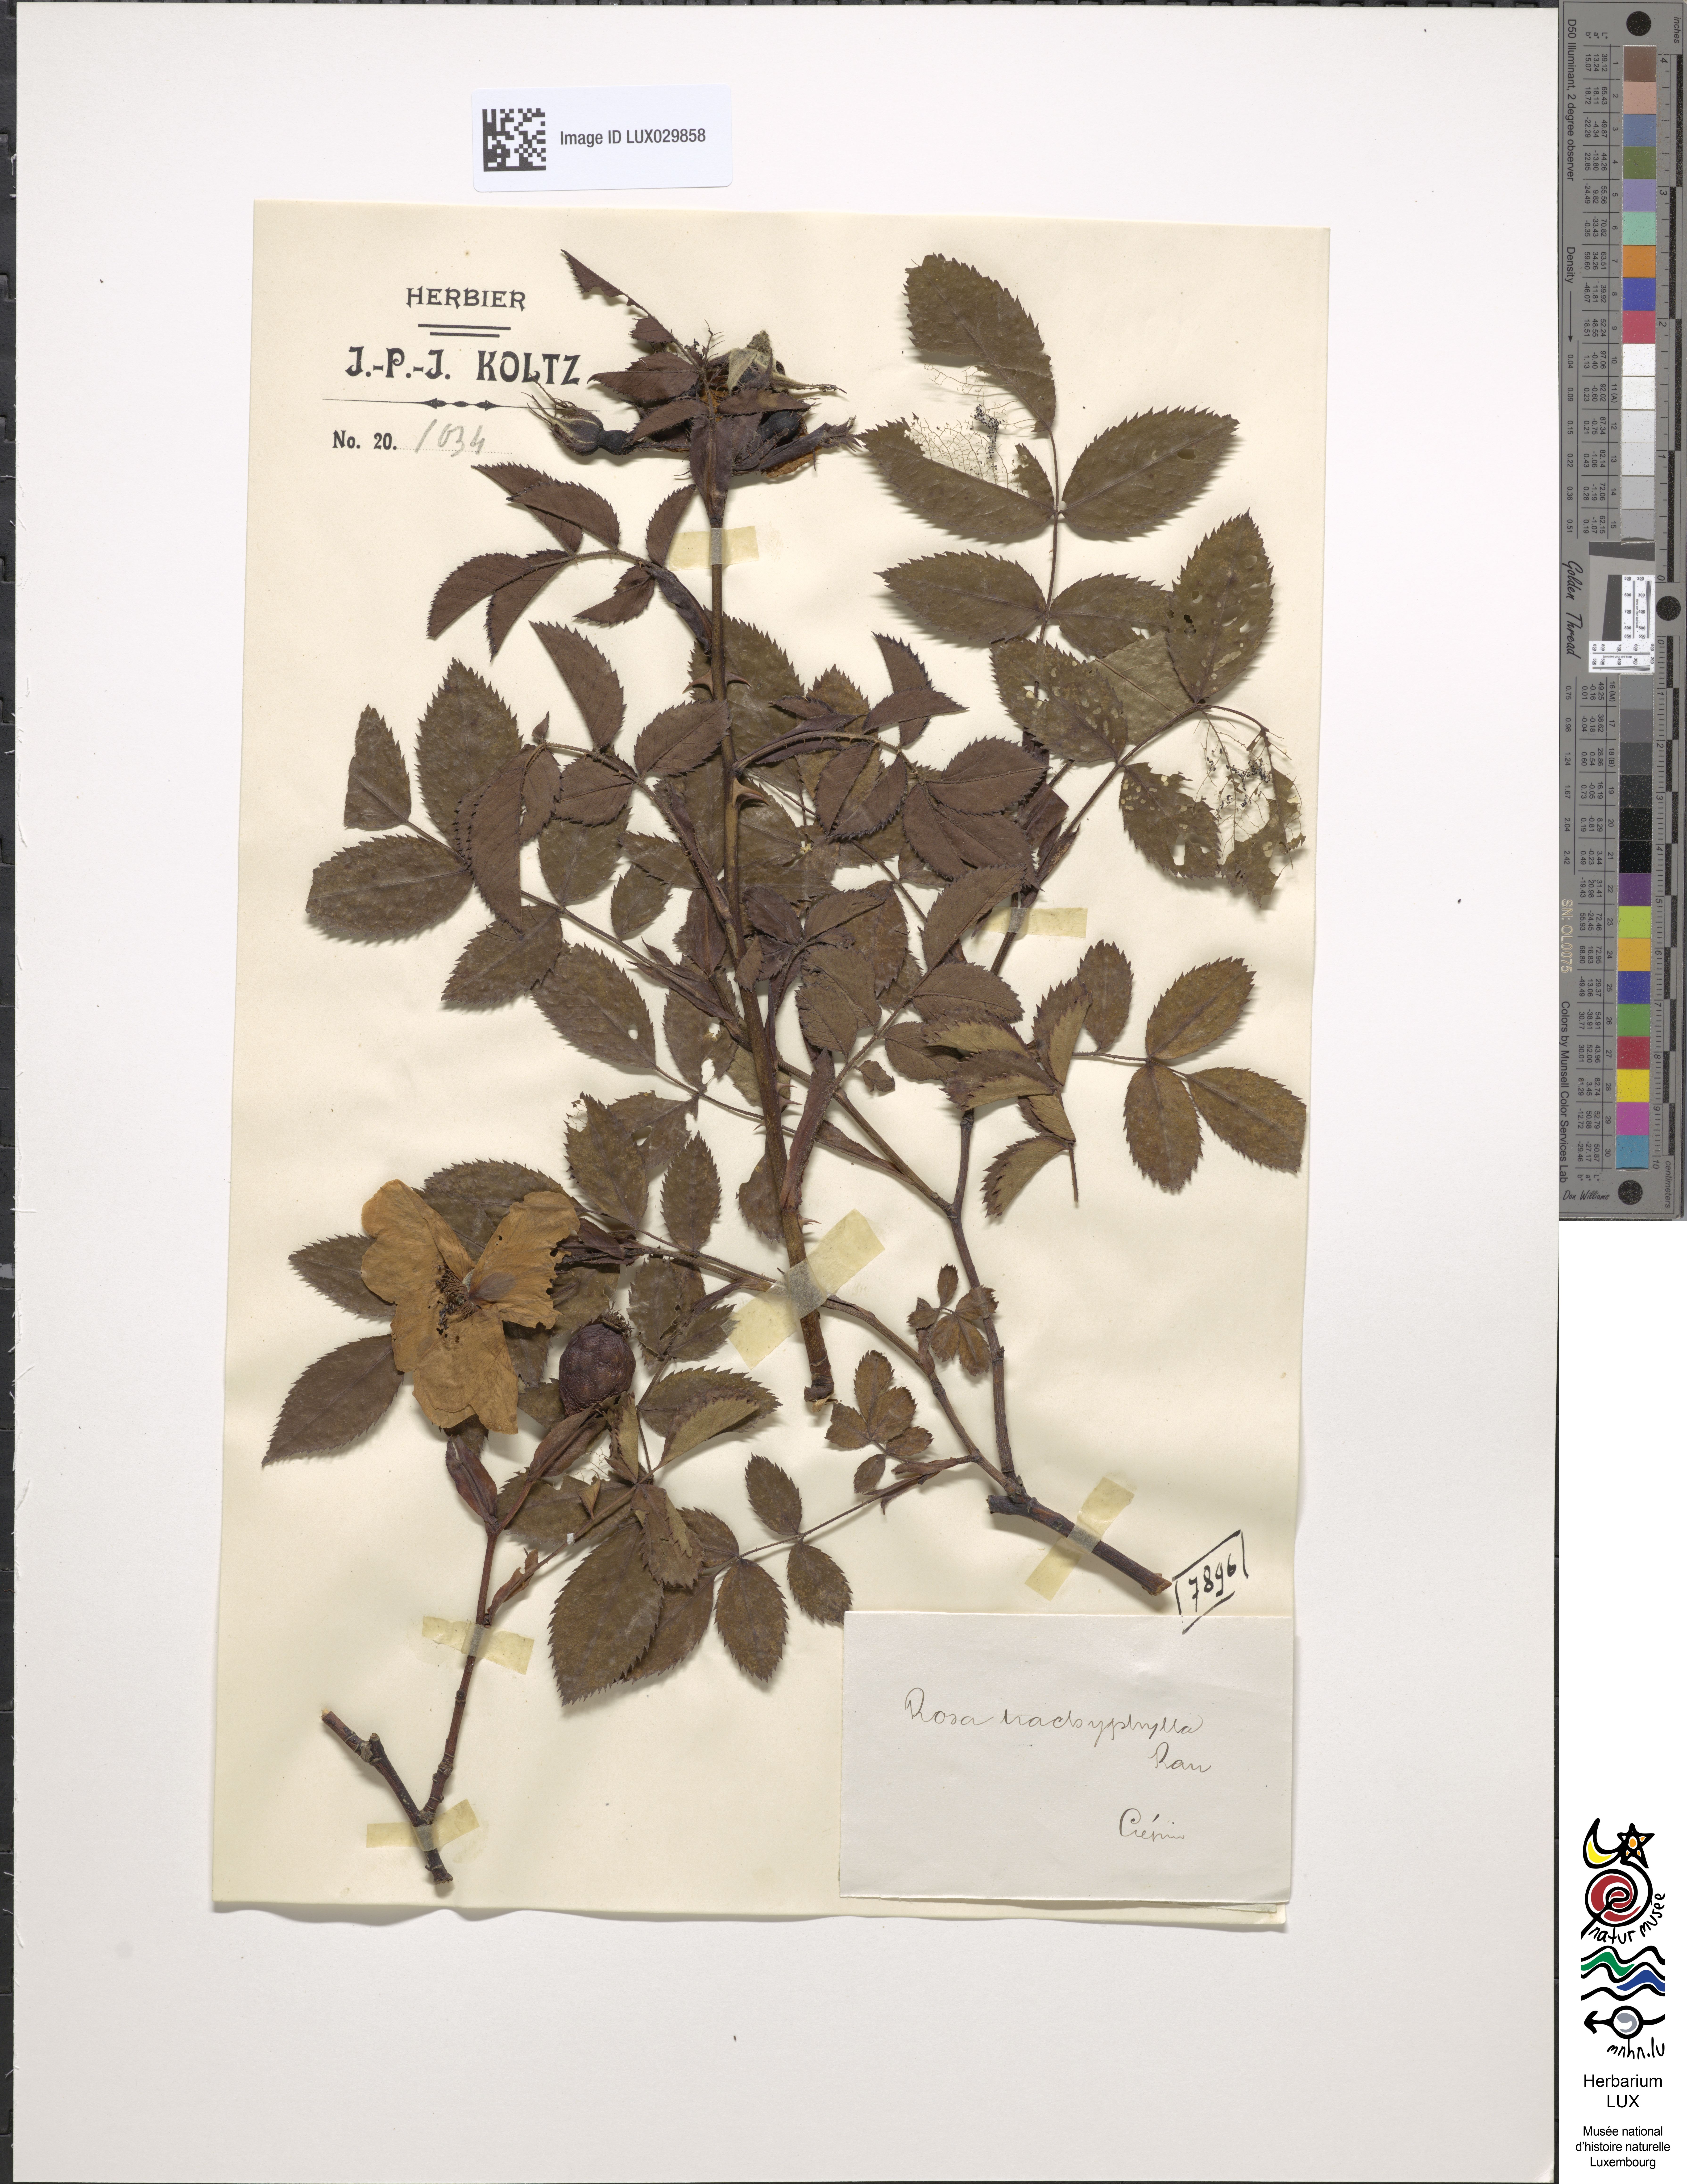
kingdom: Plantae
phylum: Tracheophyta
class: Magnoliopsida
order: Rosales
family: Rosaceae
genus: Rosa
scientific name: Rosa marginata
